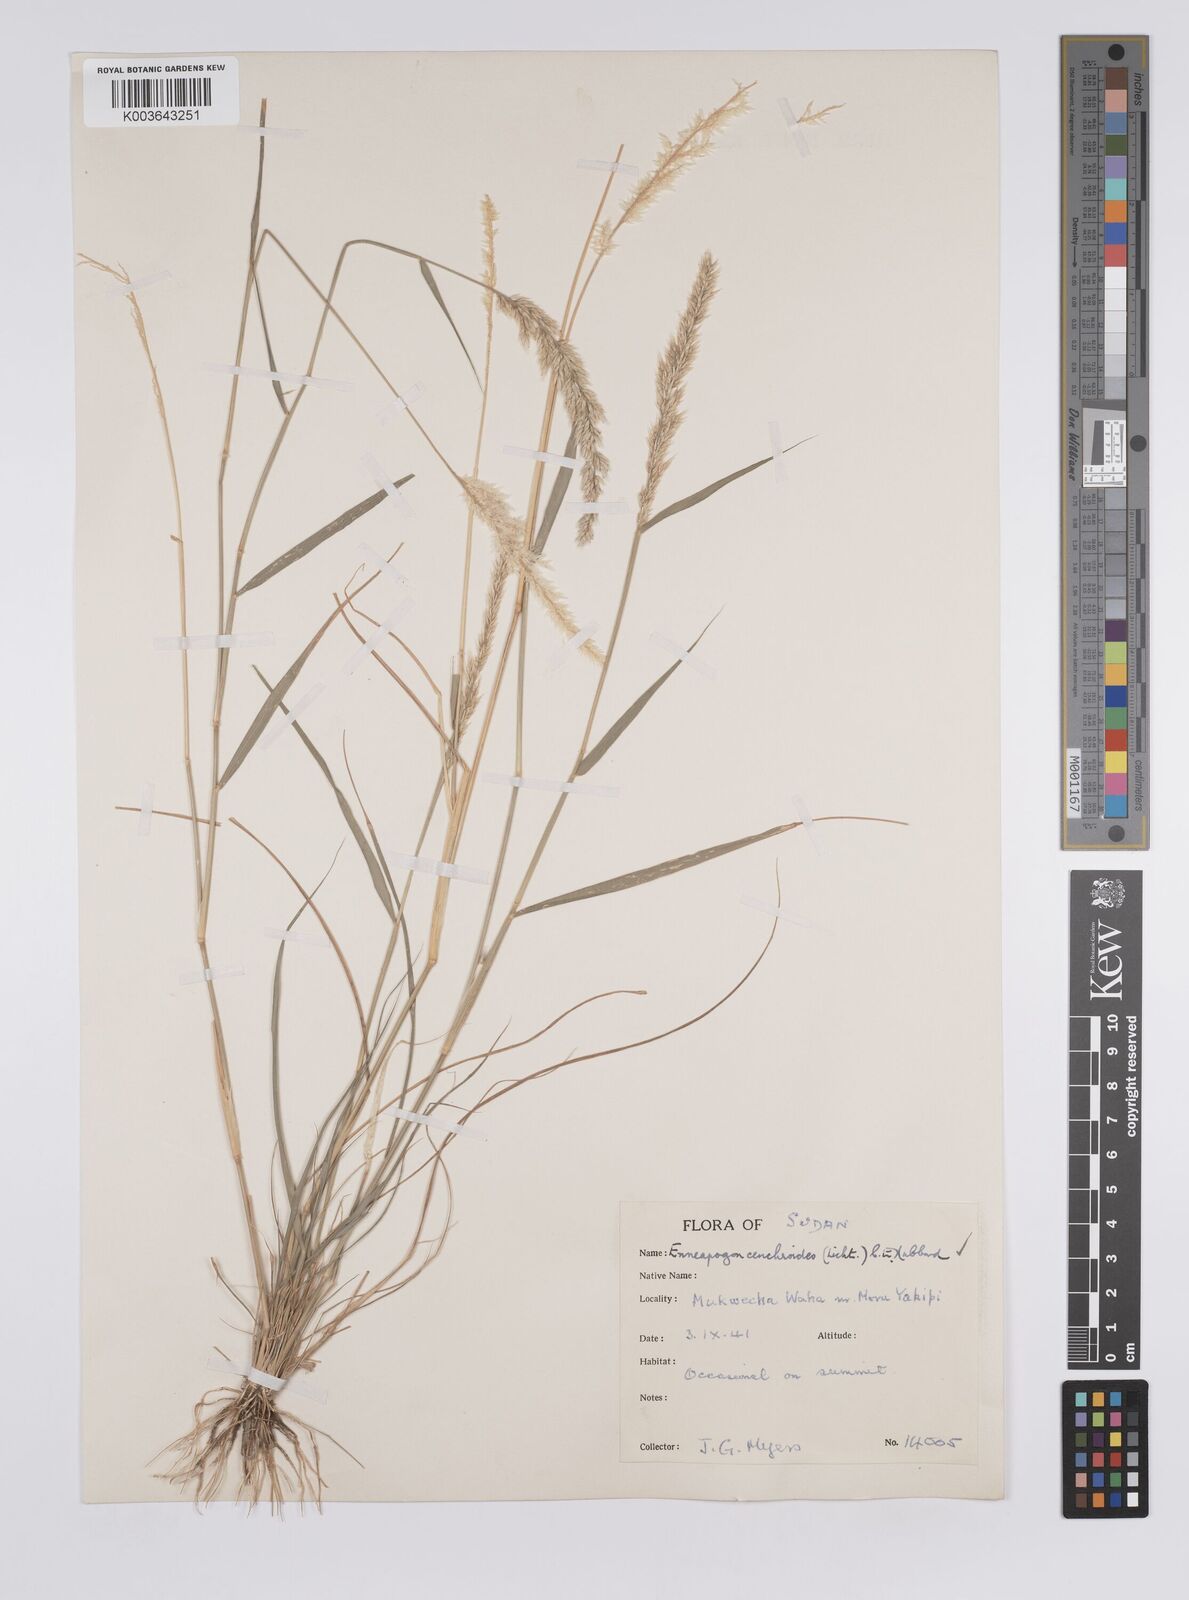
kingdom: Plantae
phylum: Tracheophyta
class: Liliopsida
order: Poales
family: Poaceae
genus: Enneapogon
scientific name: Enneapogon cenchroides
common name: Soft feather pappusgrass
